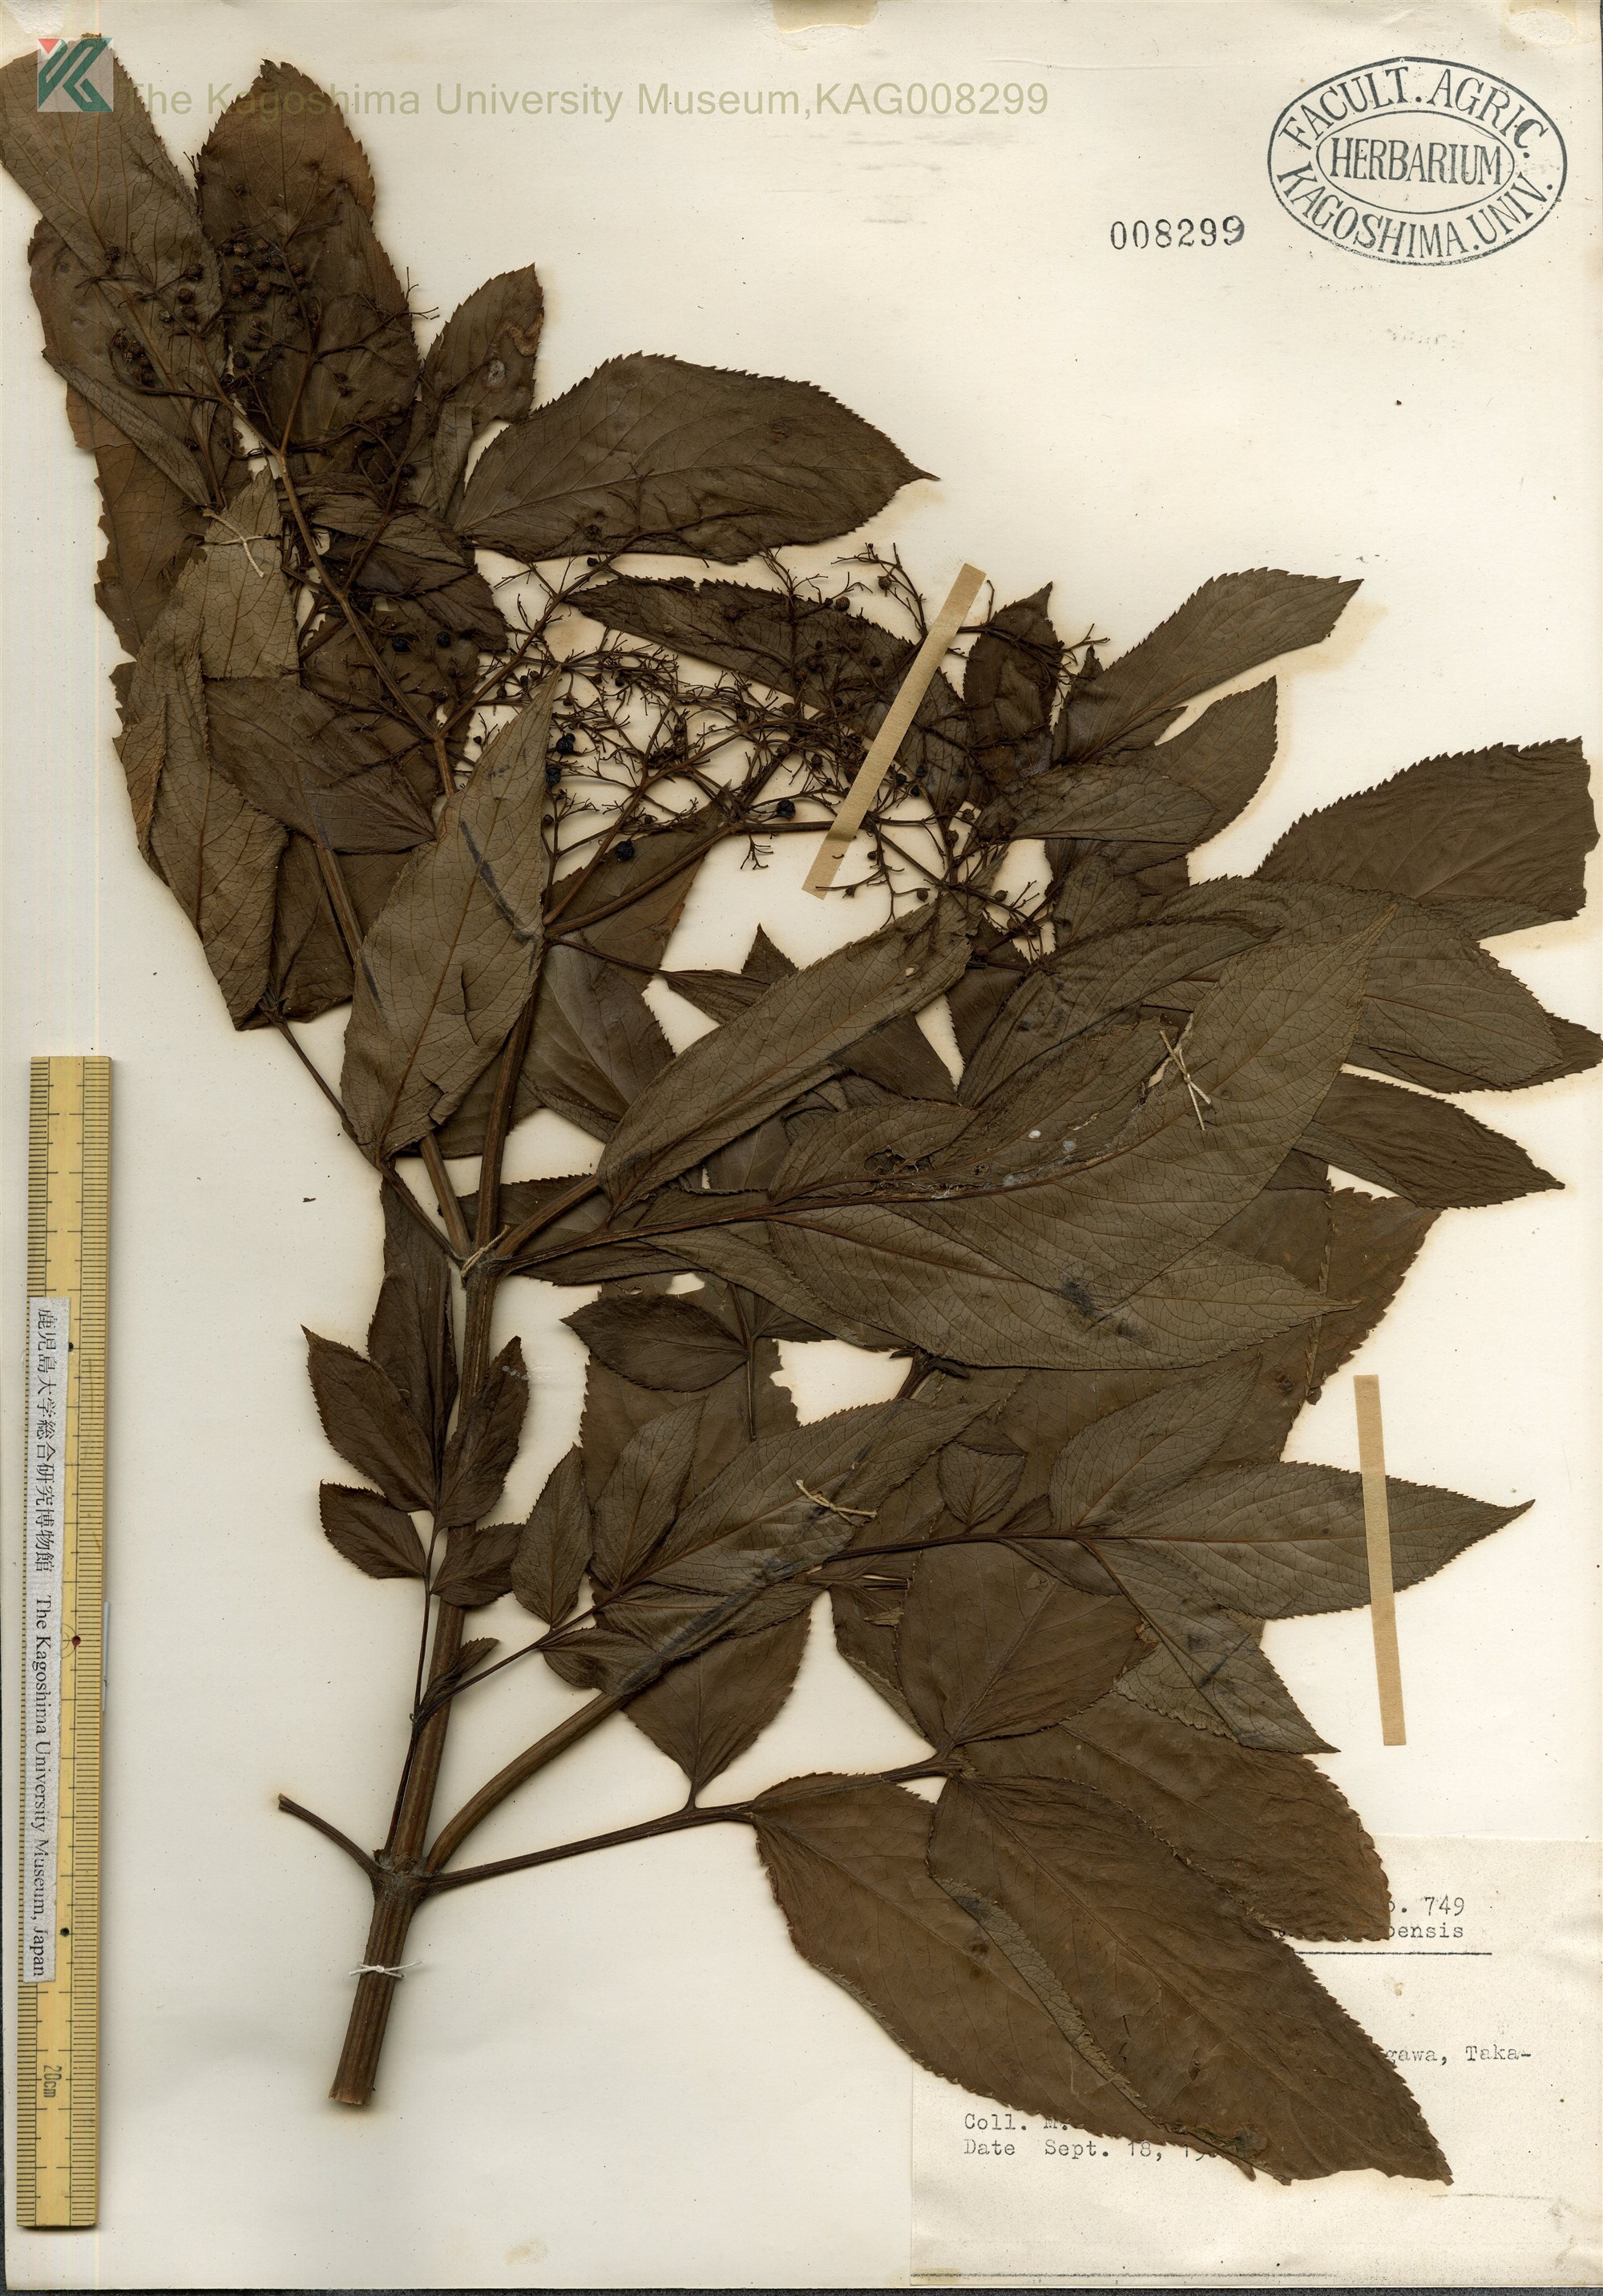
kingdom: Plantae
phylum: Tracheophyta
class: Magnoliopsida
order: Dipsacales
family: Viburnaceae
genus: Sambucus
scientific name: Sambucus javanica
